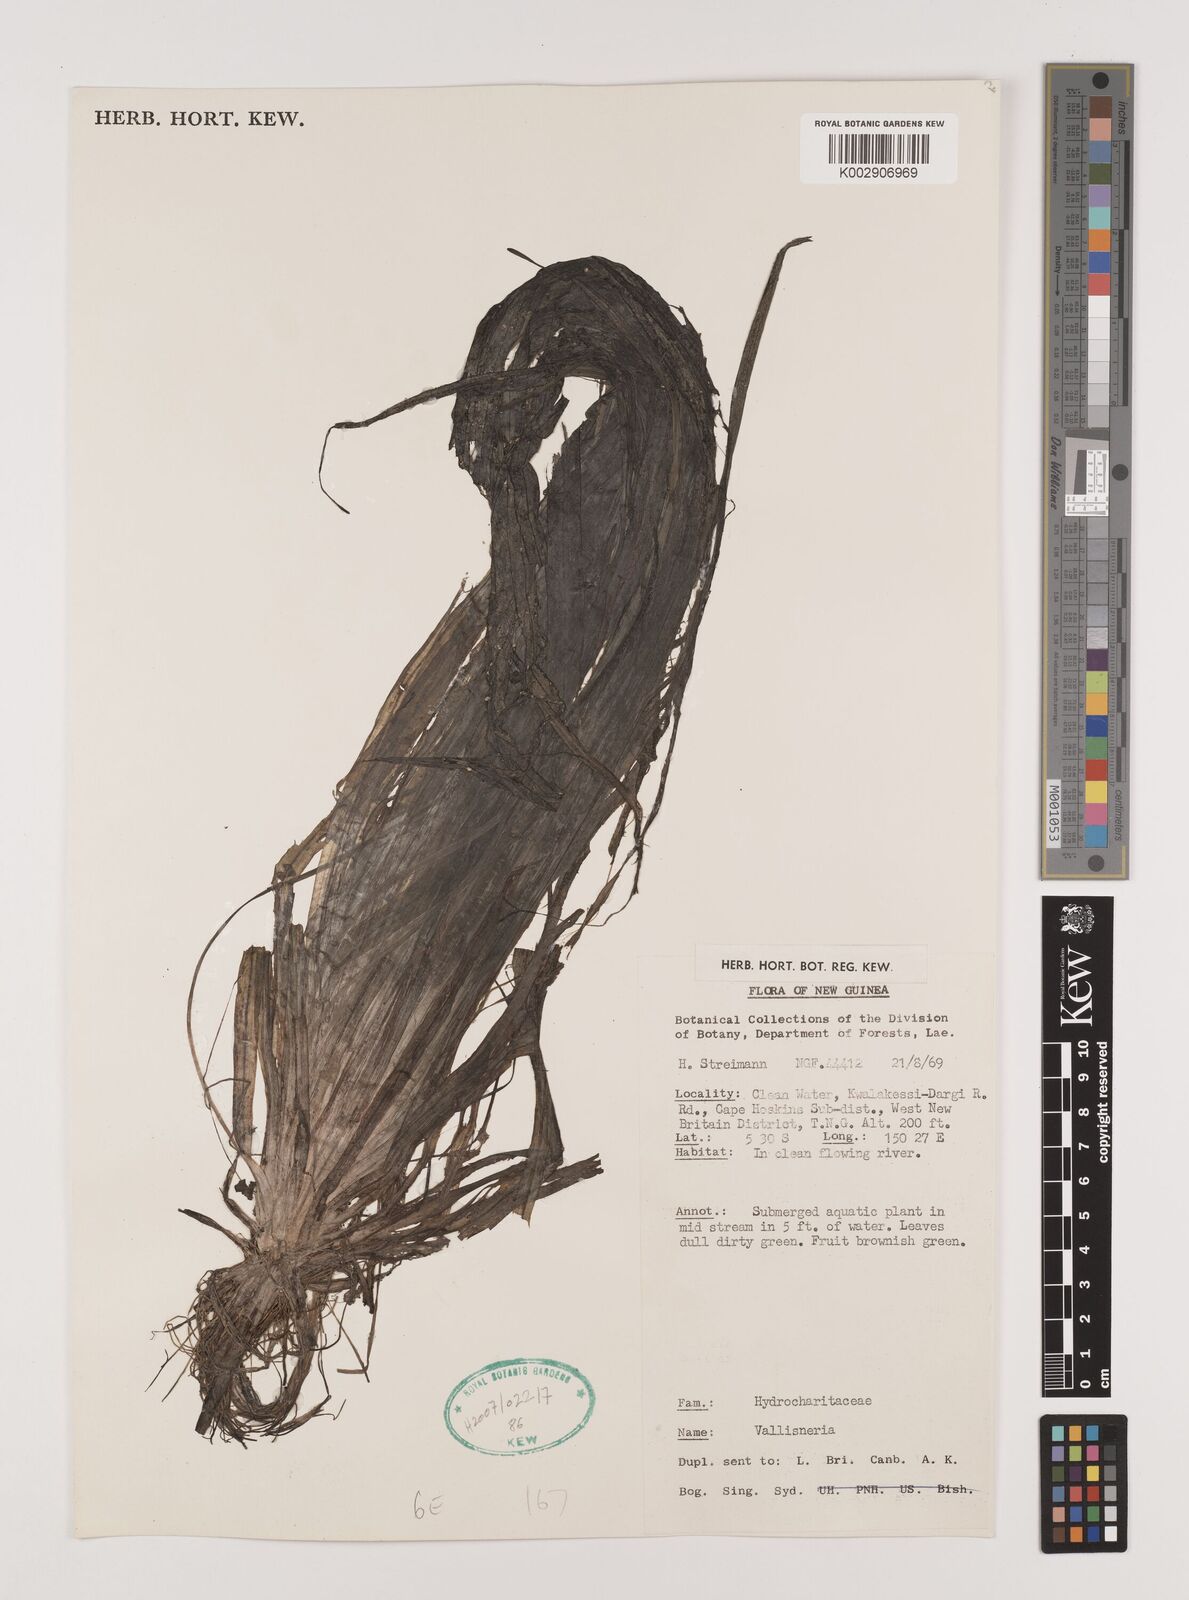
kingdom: Plantae
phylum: Tracheophyta
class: Liliopsida
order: Alismatales
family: Hydrocharitaceae
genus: Vallisneria
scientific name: Vallisneria
